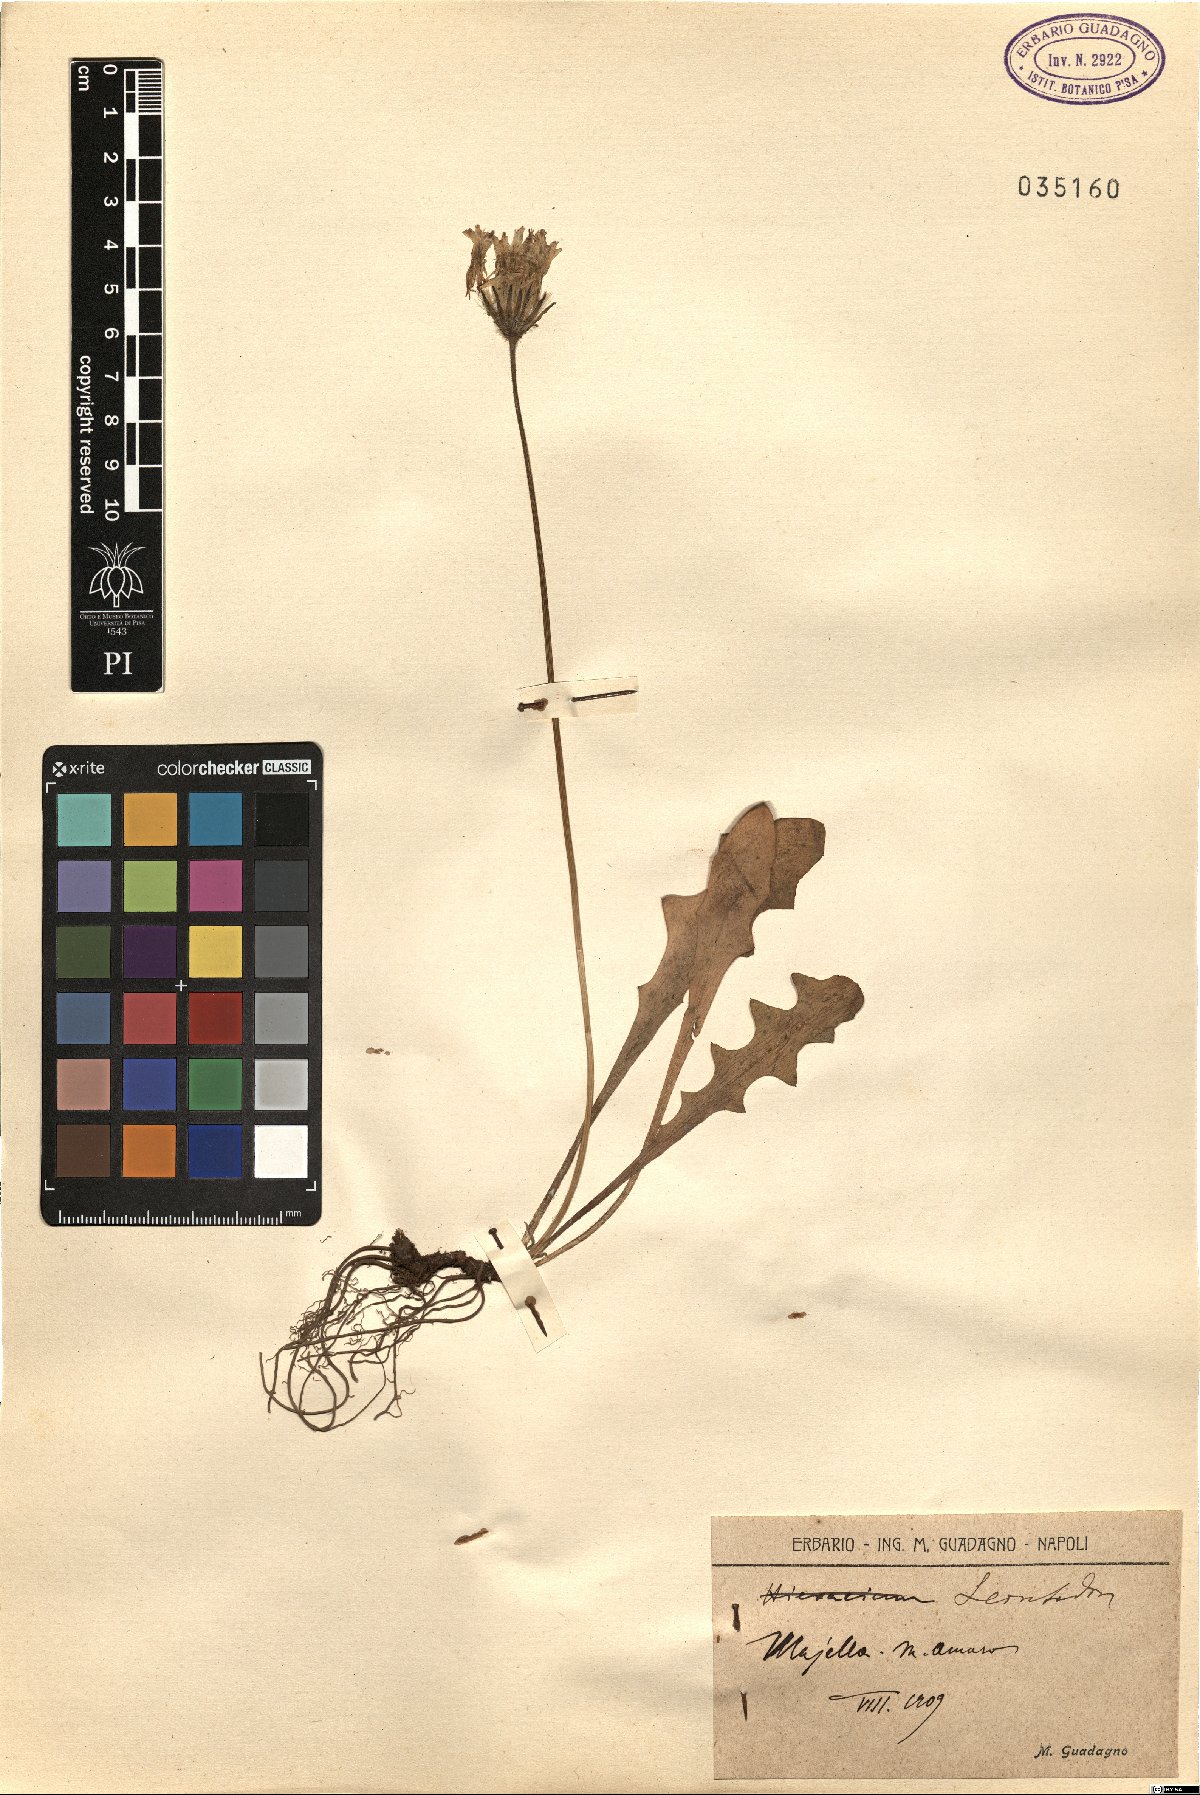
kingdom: Plantae
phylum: Tracheophyta
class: Magnoliopsida
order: Asterales
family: Asteraceae
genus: Leontodon
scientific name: Leontodon
